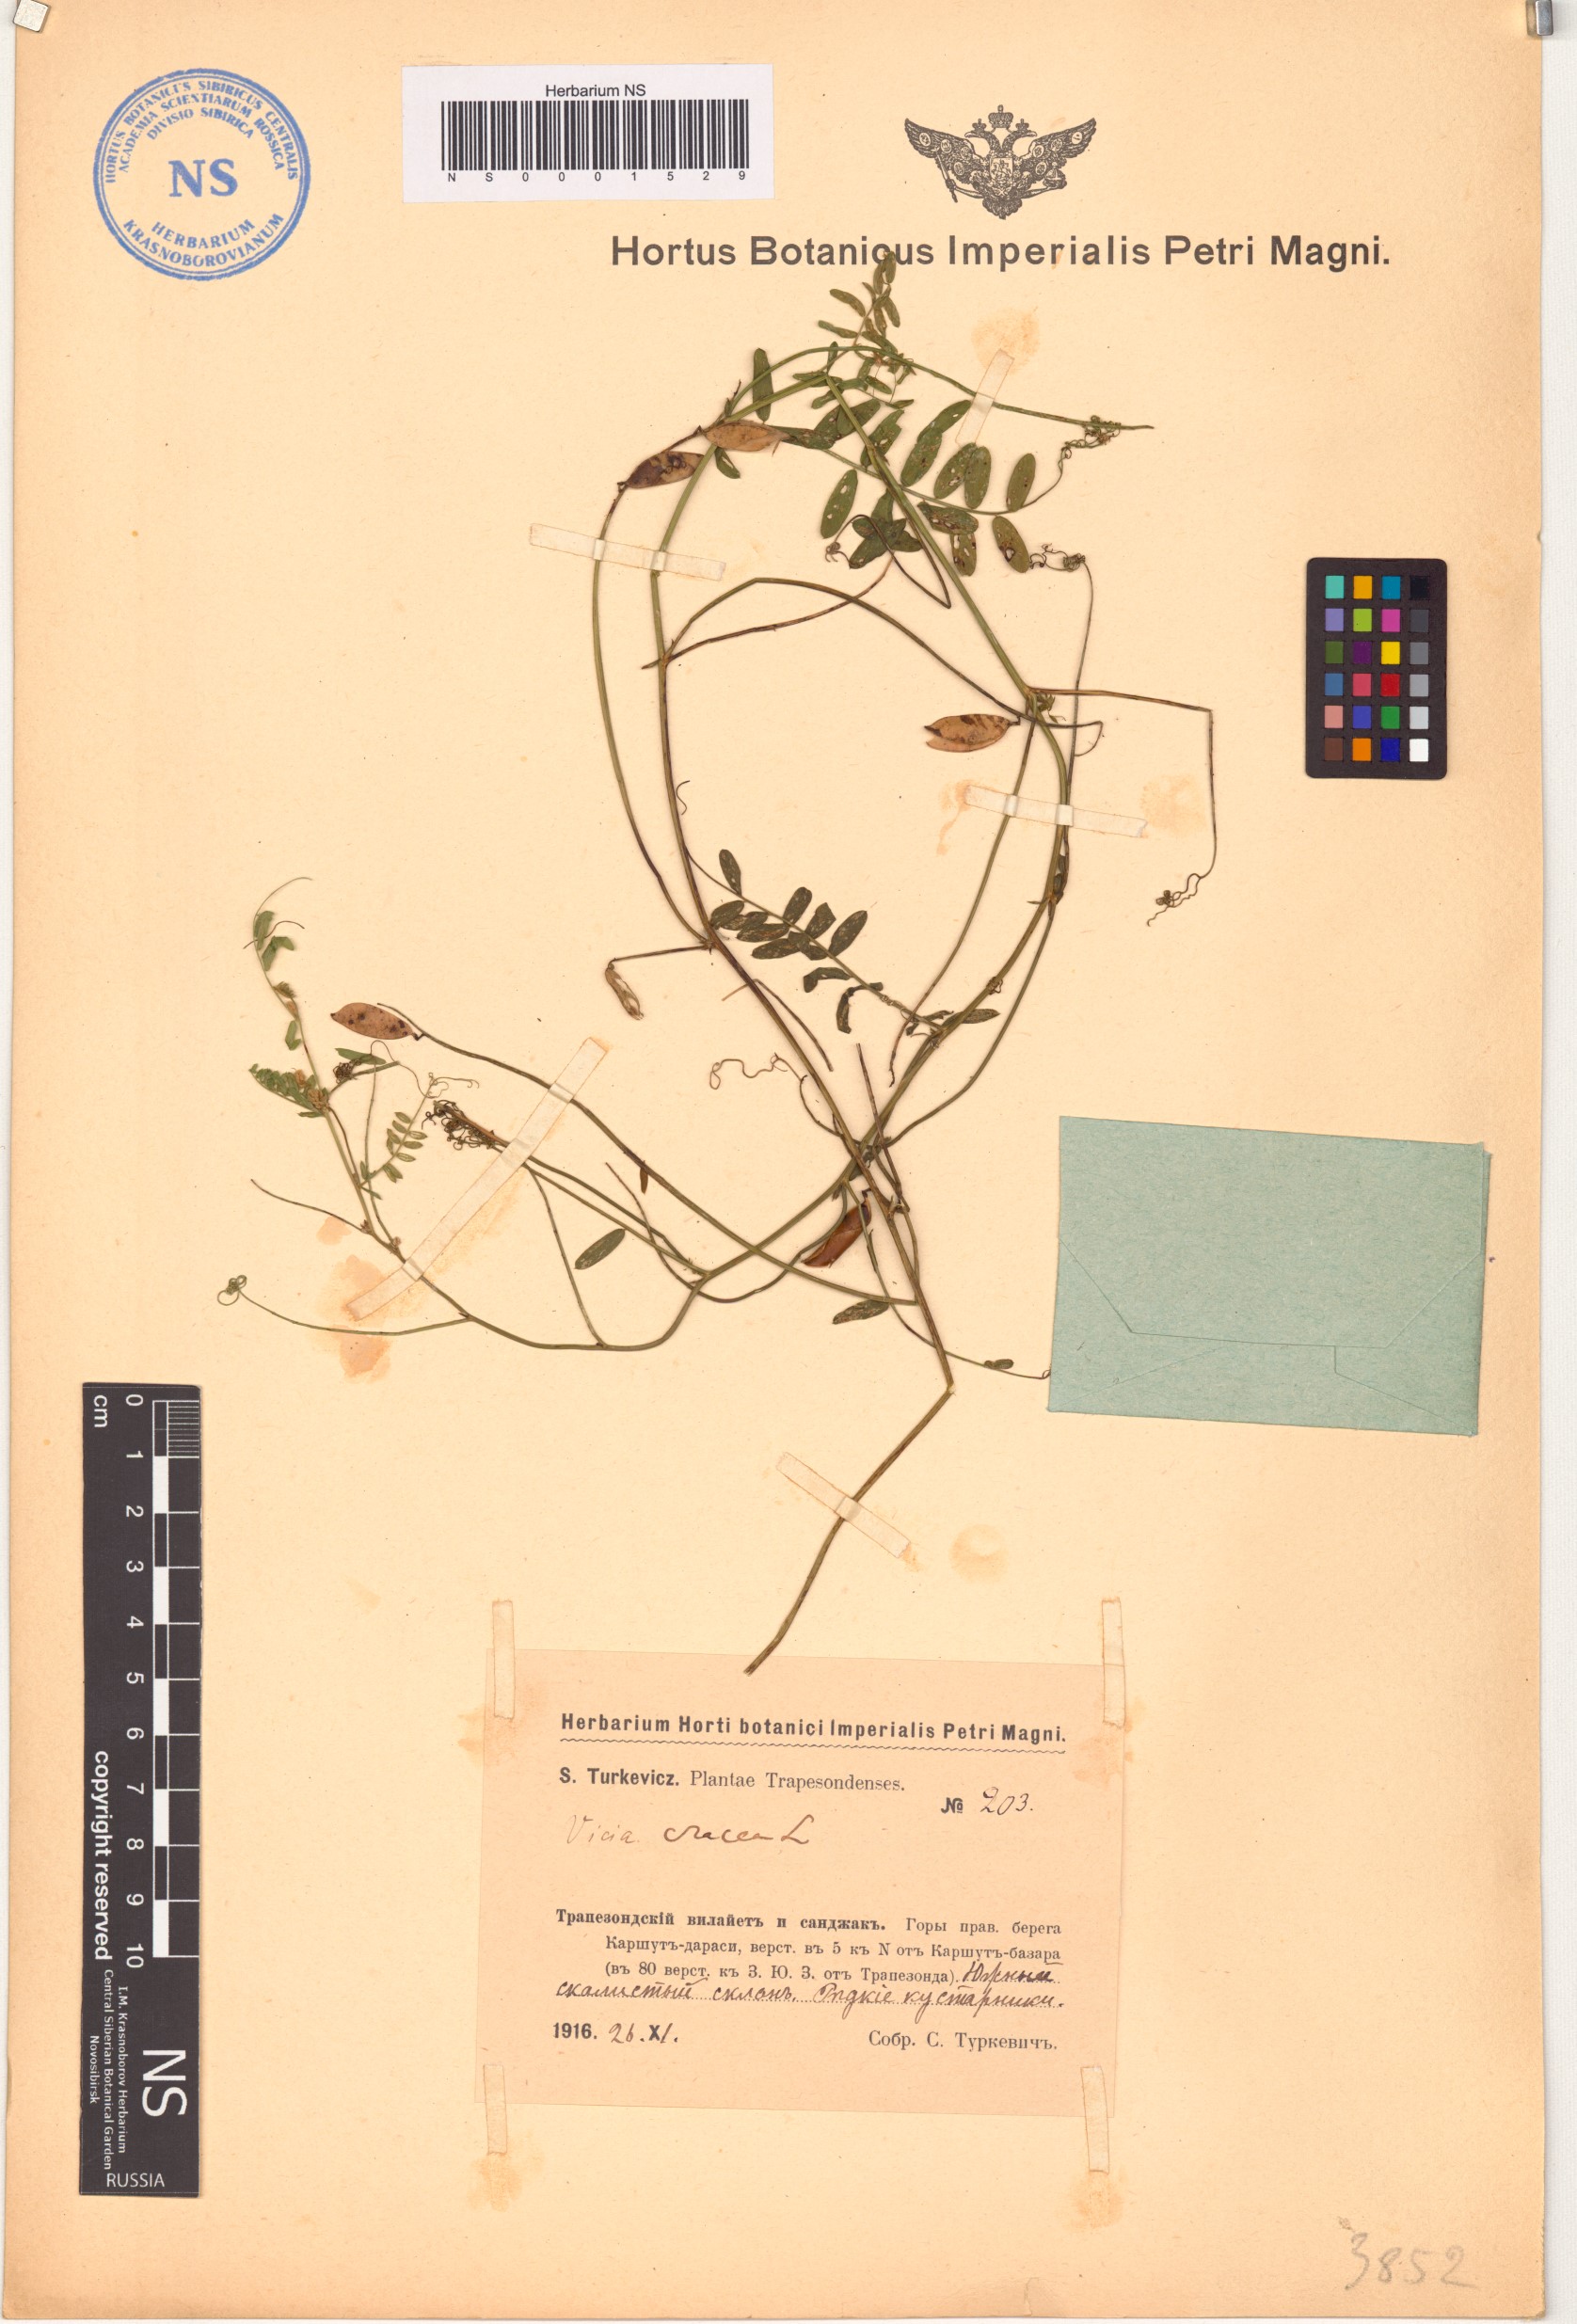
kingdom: Plantae
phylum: Tracheophyta
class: Magnoliopsida
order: Fabales
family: Fabaceae
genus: Vicia
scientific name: Vicia cracca
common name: Bird vetch
